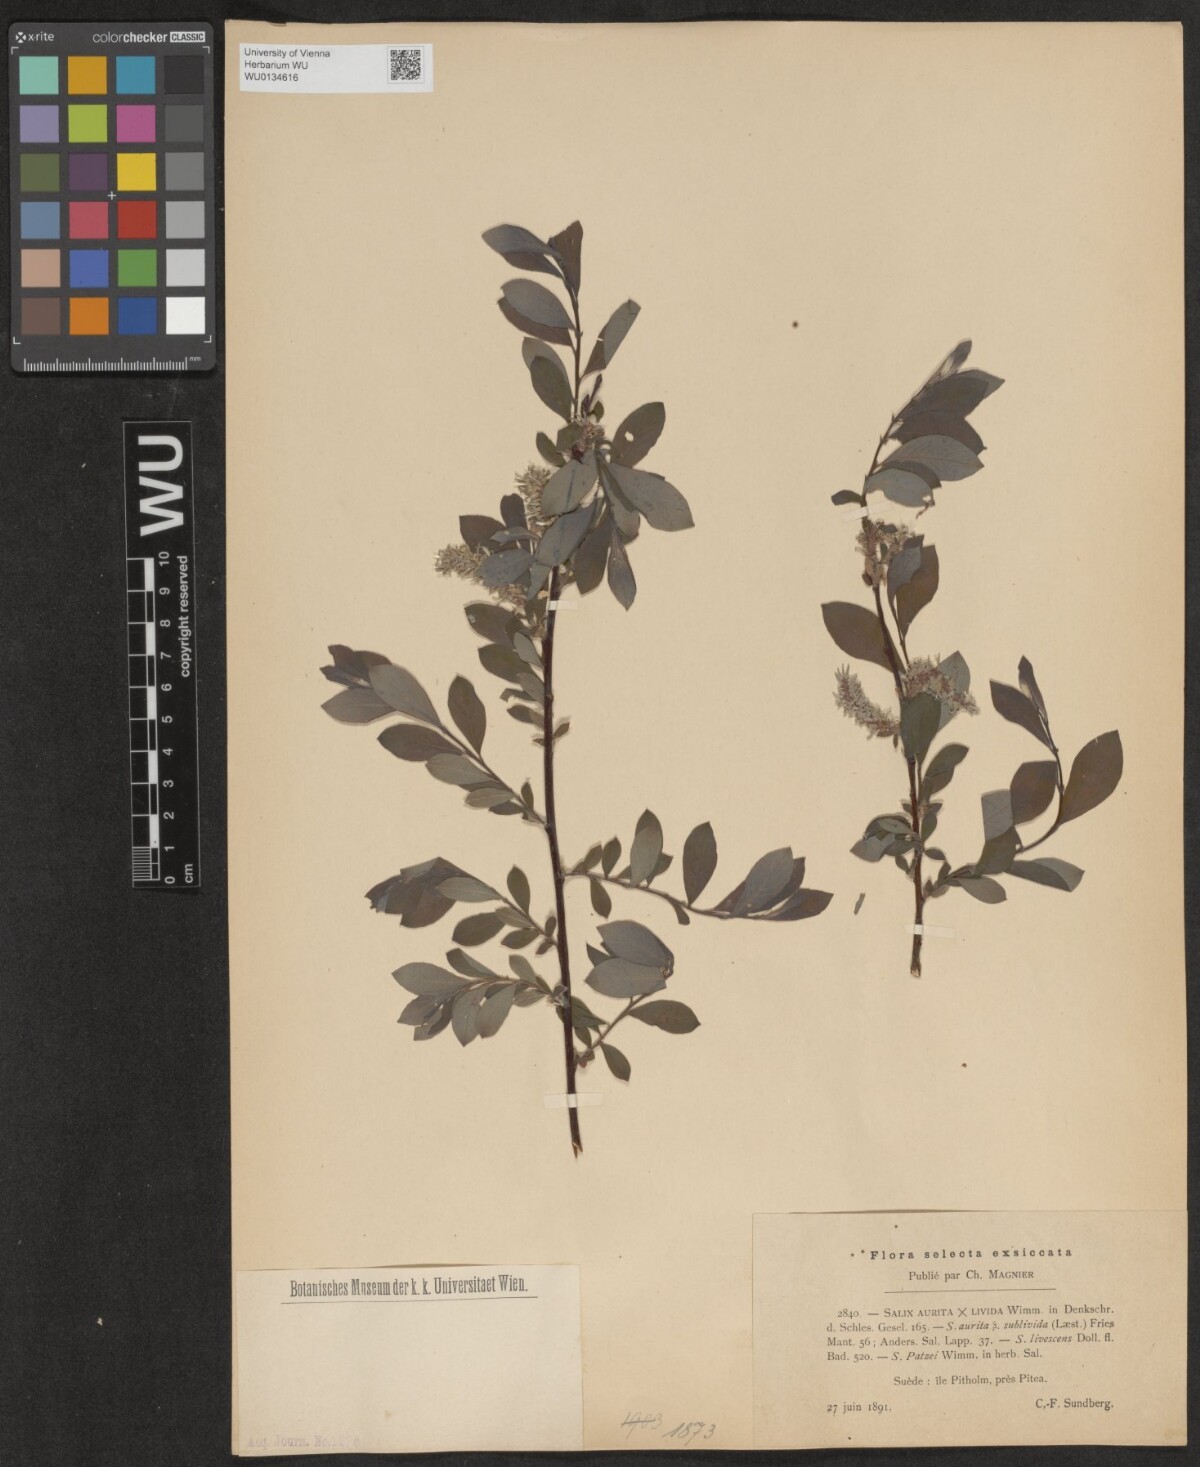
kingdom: Plantae
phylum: Tracheophyta
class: Magnoliopsida
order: Malpighiales
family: Salicaceae
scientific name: Salicaceae
